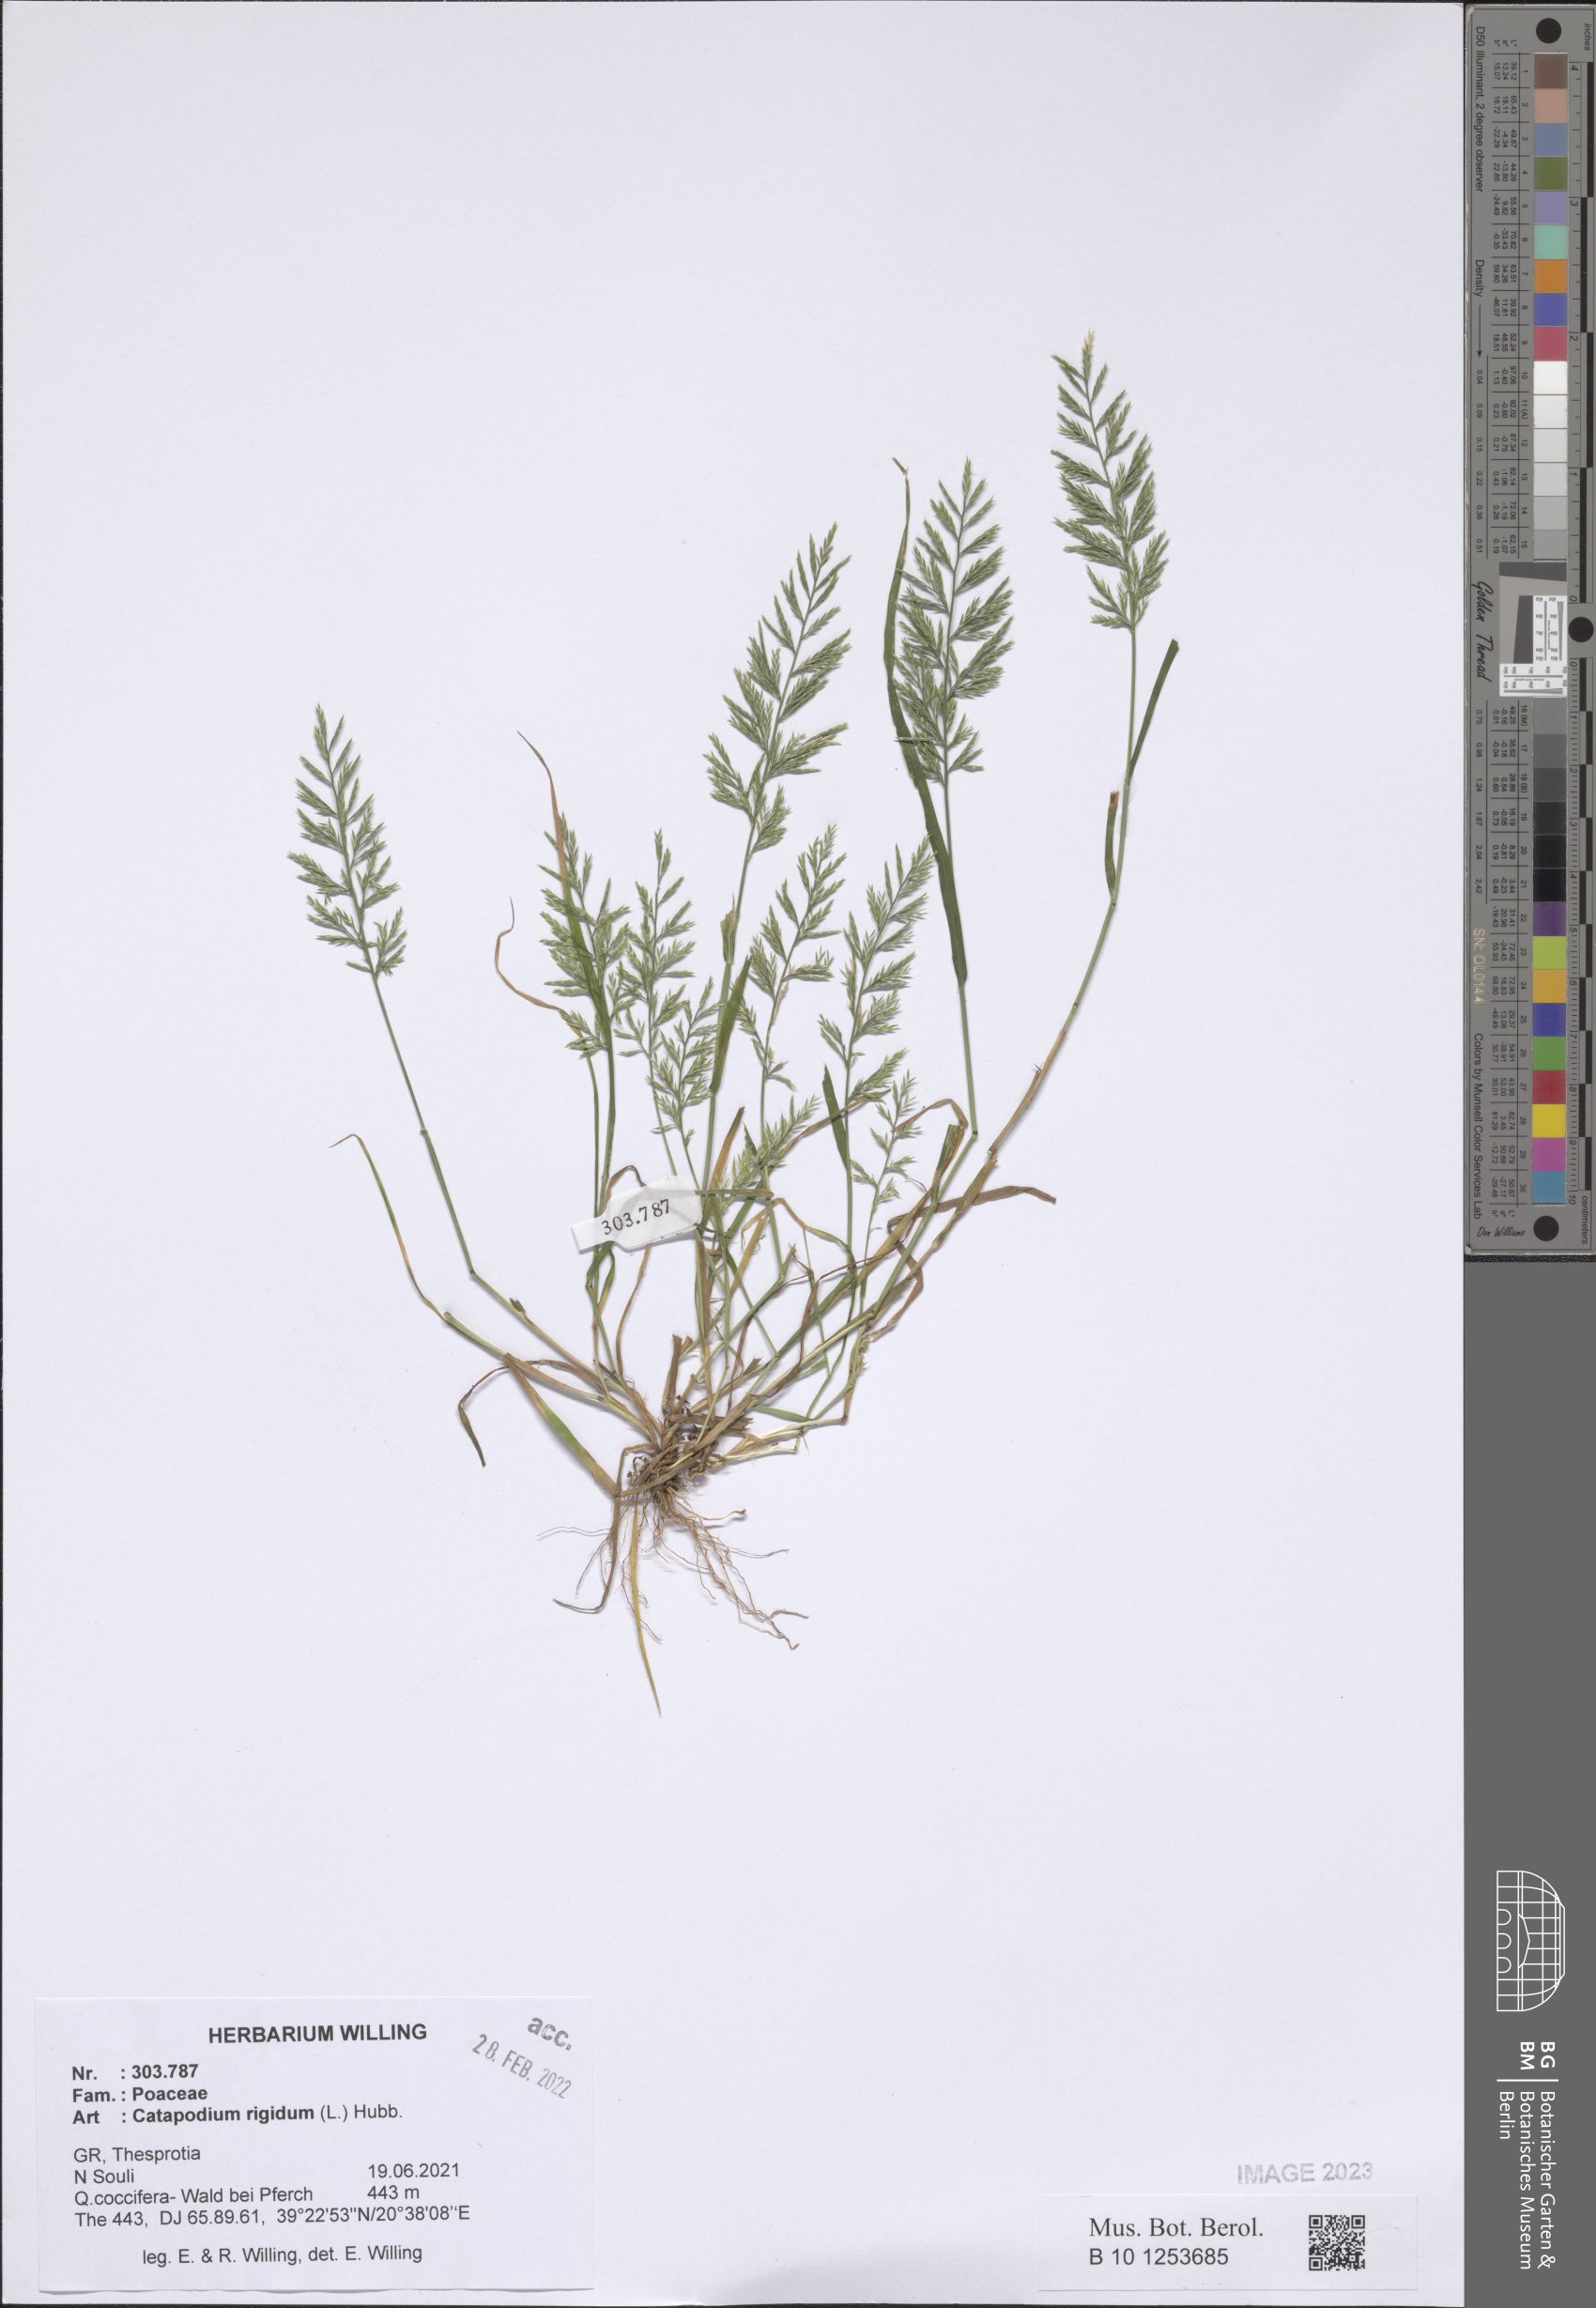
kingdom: Plantae
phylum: Tracheophyta
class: Liliopsida
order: Poales
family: Poaceae
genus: Catapodium
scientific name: Catapodium rigidum
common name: Fern-grass
